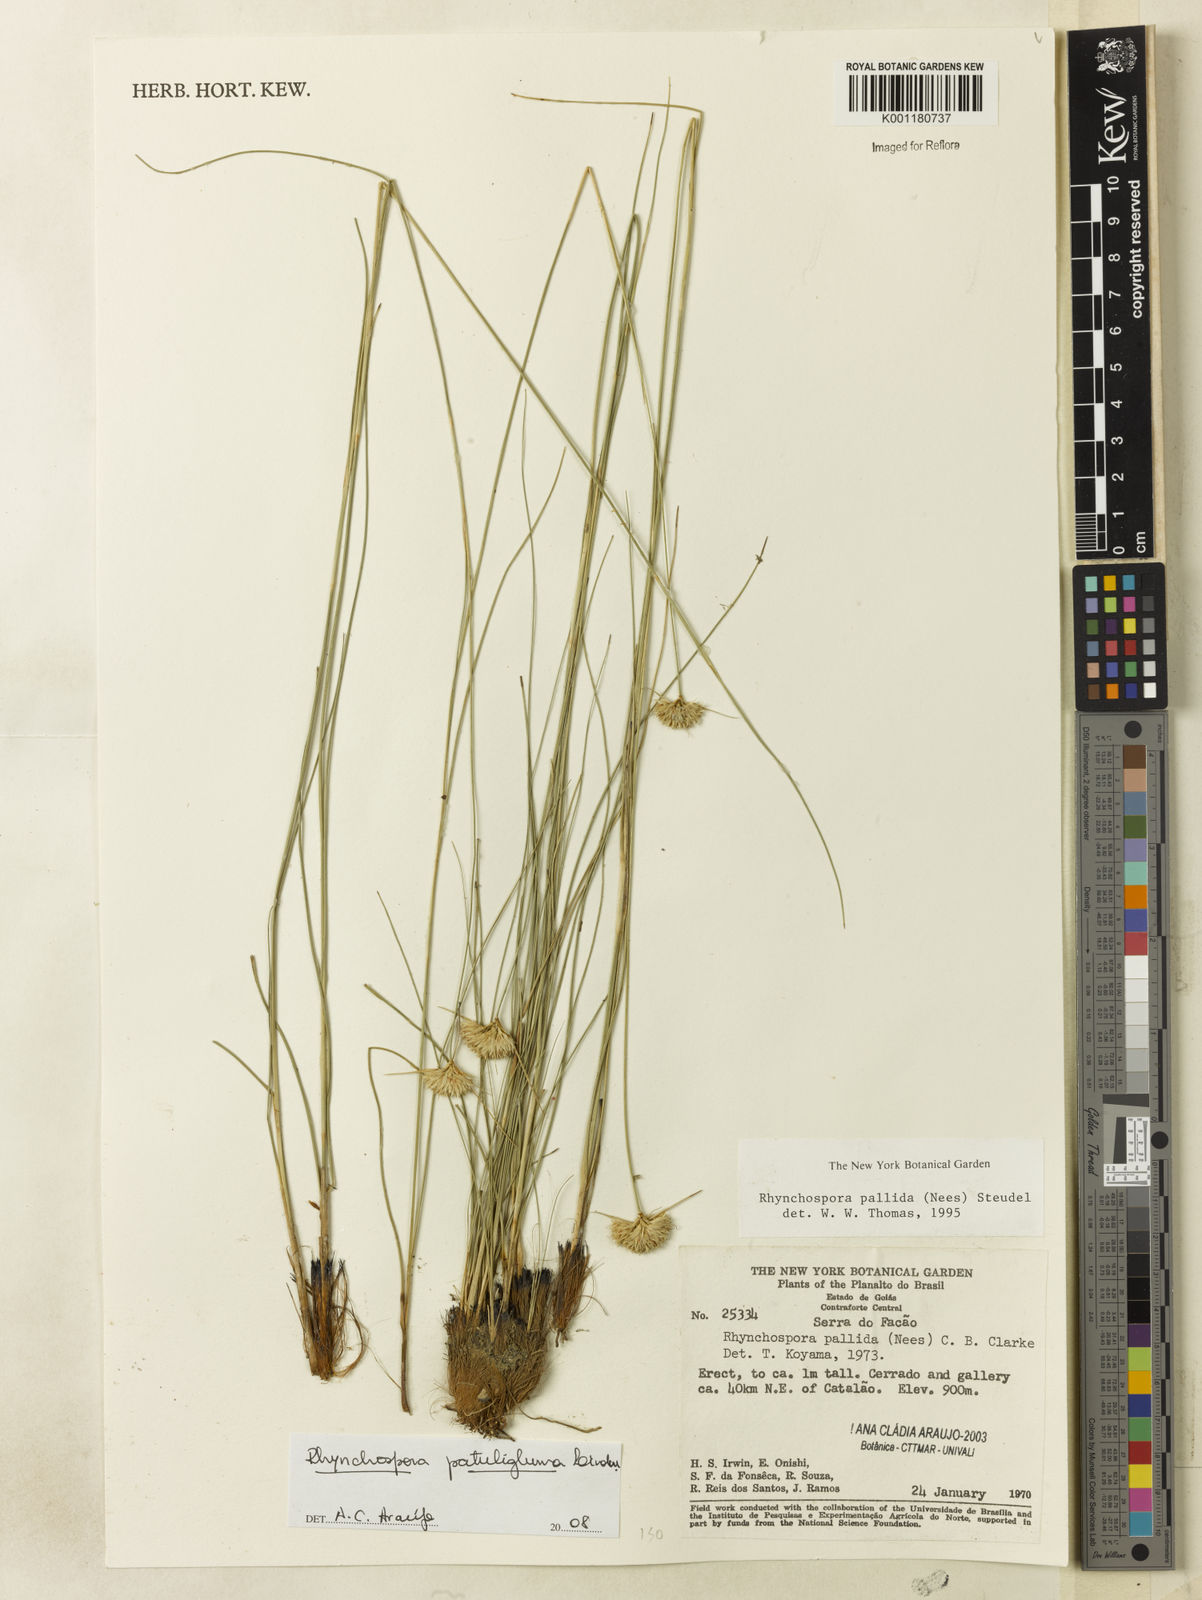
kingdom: Plantae
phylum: Tracheophyta
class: Liliopsida
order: Poales
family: Cyperaceae
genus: Rhynchospora
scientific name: Rhynchospora patuligluma
